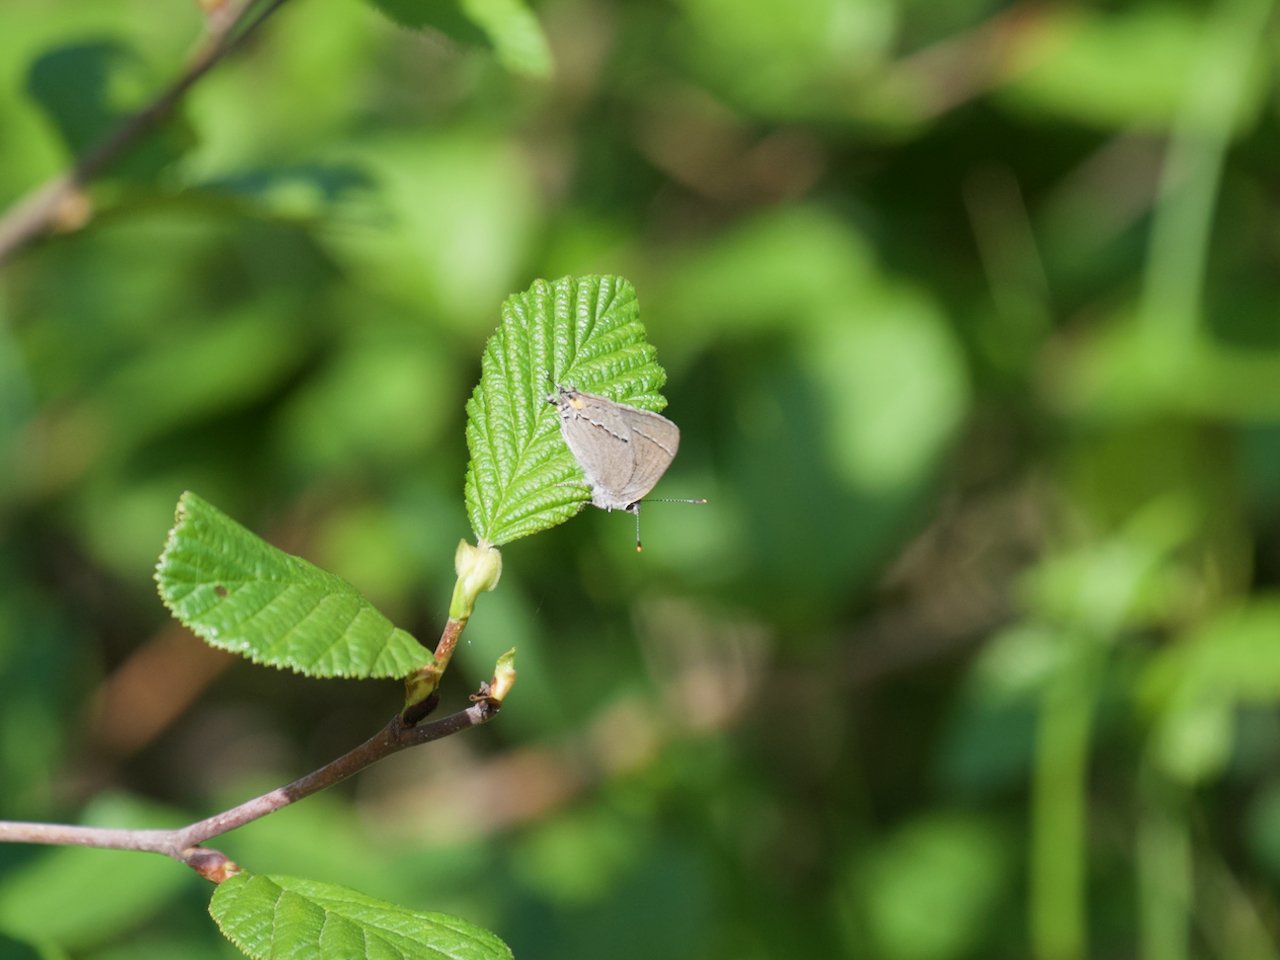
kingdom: Animalia
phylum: Arthropoda
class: Insecta
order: Lepidoptera
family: Lycaenidae
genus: Strymon
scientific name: Strymon melinus
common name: Gray Hairstreak
